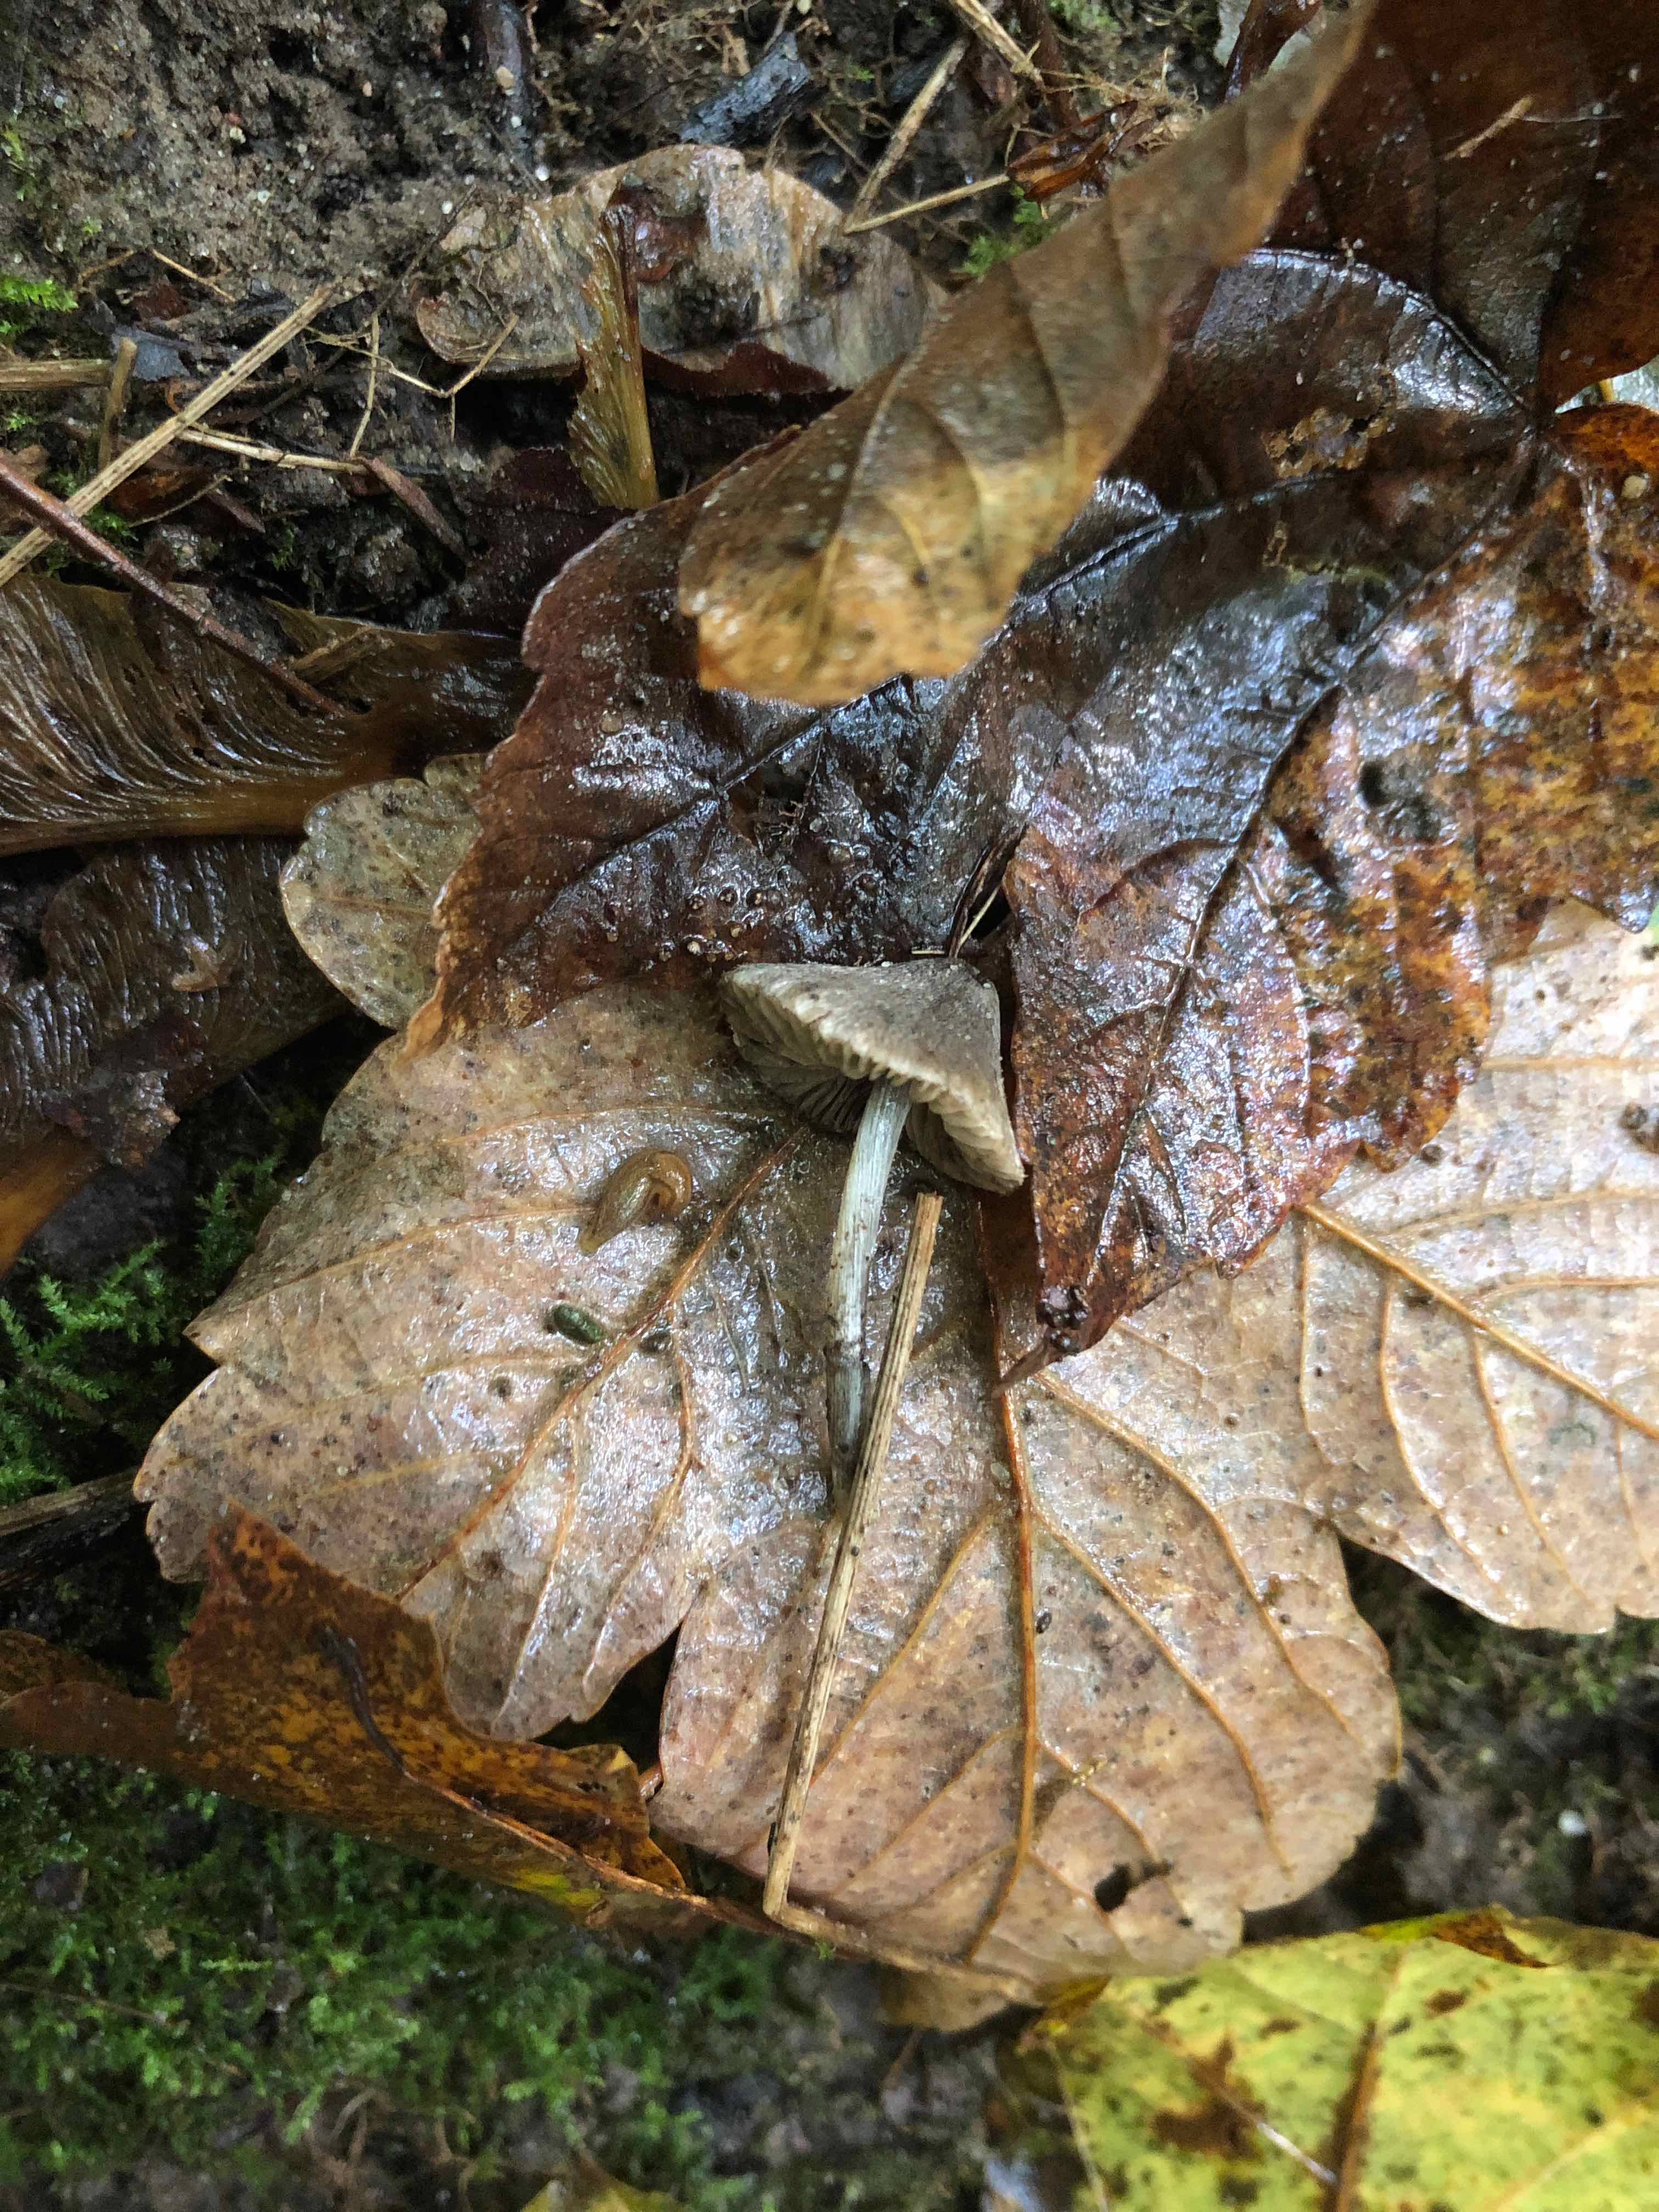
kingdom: Fungi
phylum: Basidiomycota
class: Agaricomycetes
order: Agaricales
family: Entolomataceae
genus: Entoloma
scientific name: Entoloma araneosum
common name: spindelvævs-rødblad
